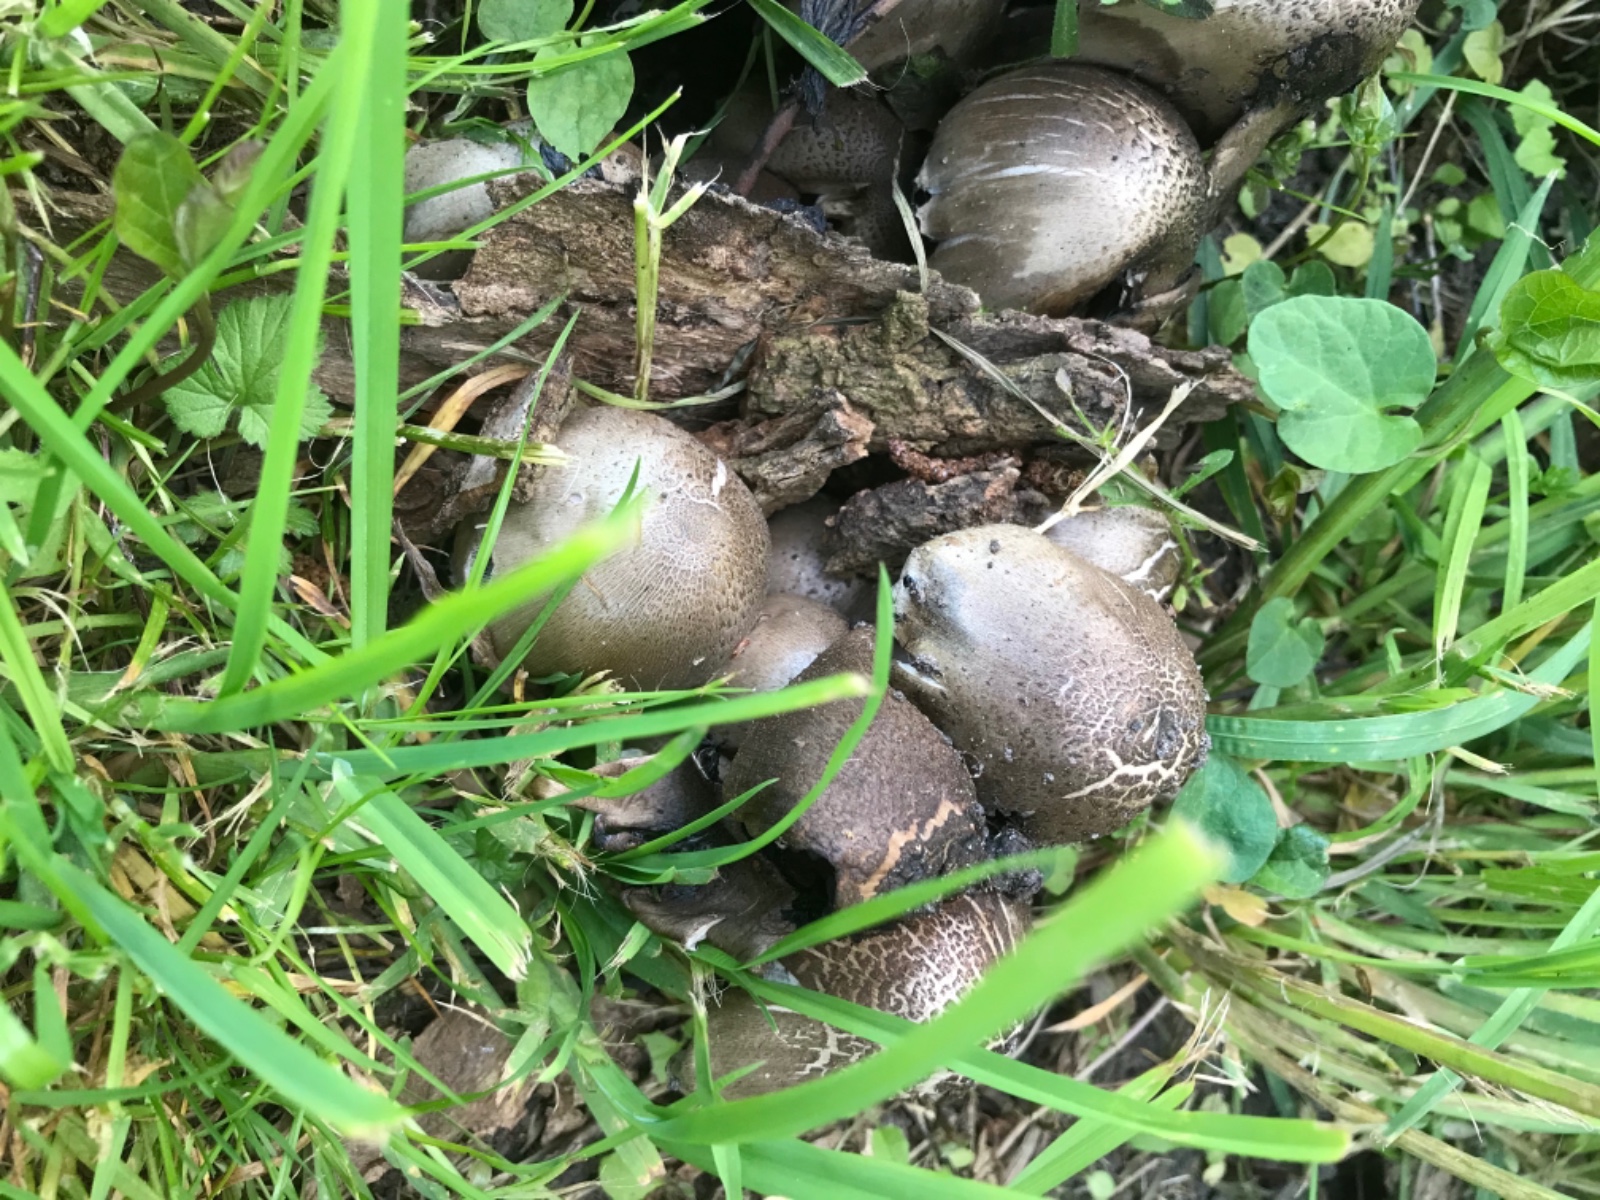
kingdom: Fungi
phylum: Basidiomycota
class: Agaricomycetes
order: Agaricales
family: Psathyrellaceae
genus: Coprinopsis
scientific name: Coprinopsis atramentaria
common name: almindelig blækhat
